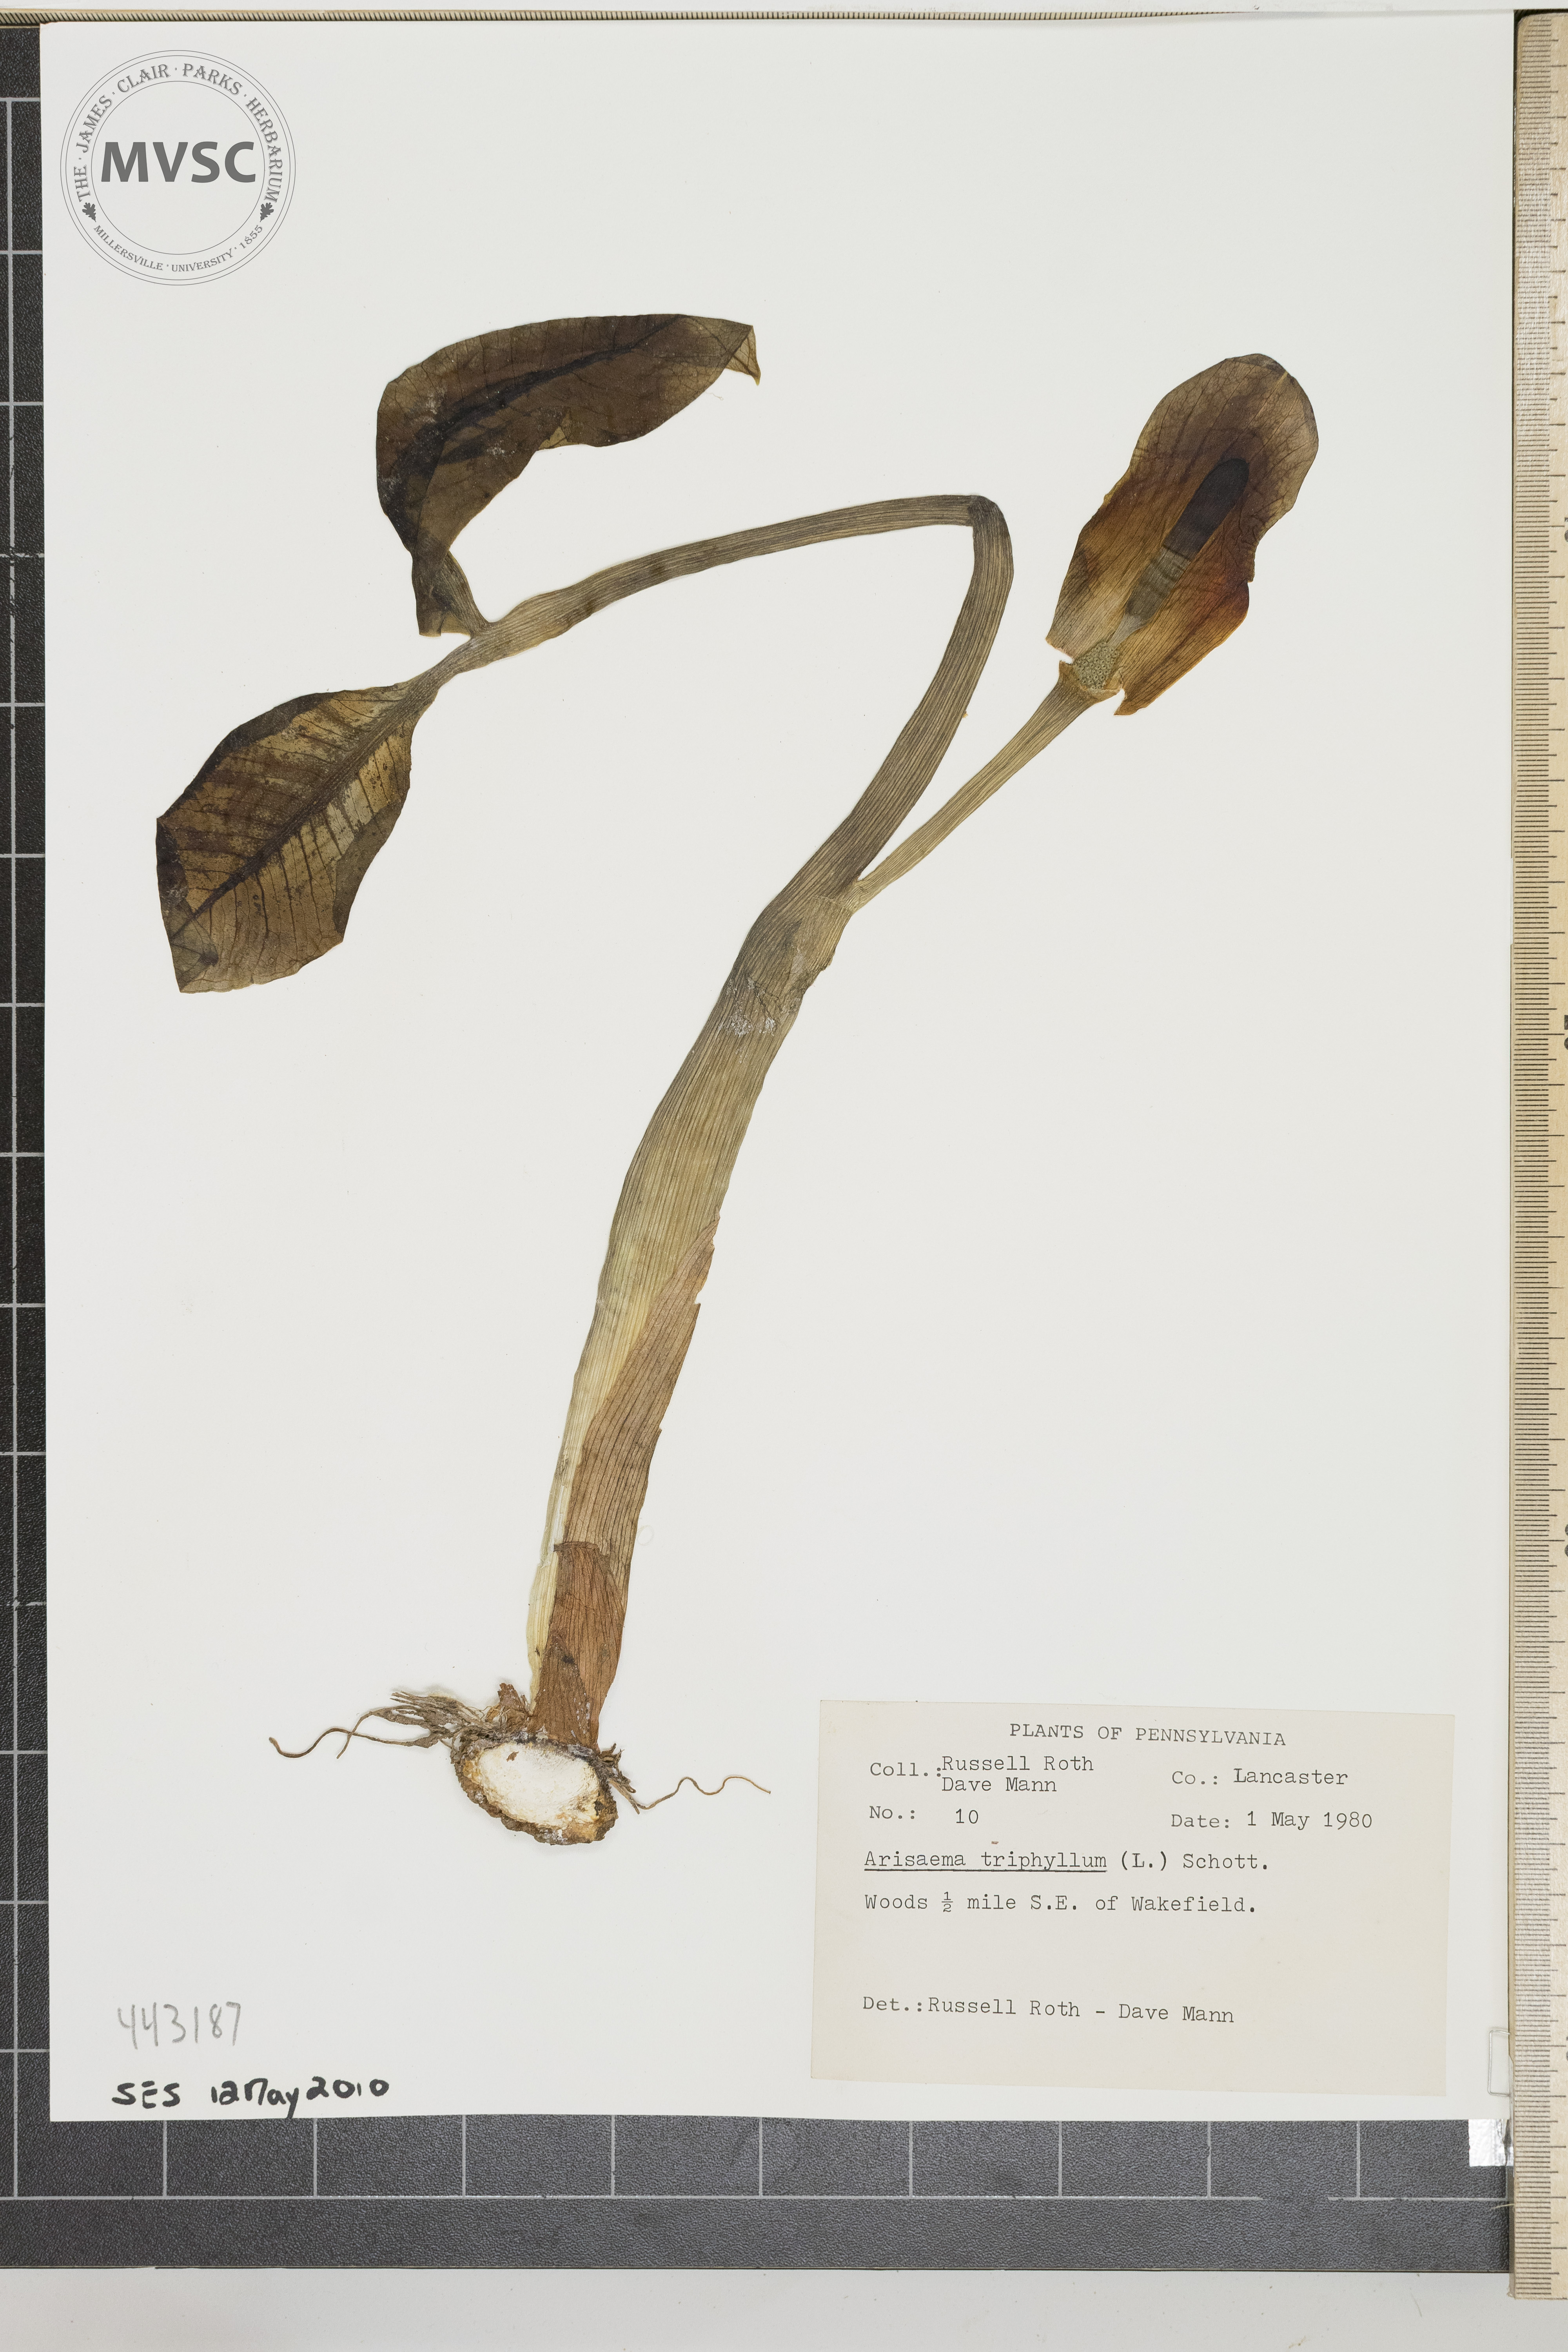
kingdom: Plantae
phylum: Tracheophyta
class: Liliopsida
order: Alismatales
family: Araceae
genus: Arisaema
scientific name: Arisaema triphyllum
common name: Jack-in-the-pulpit
